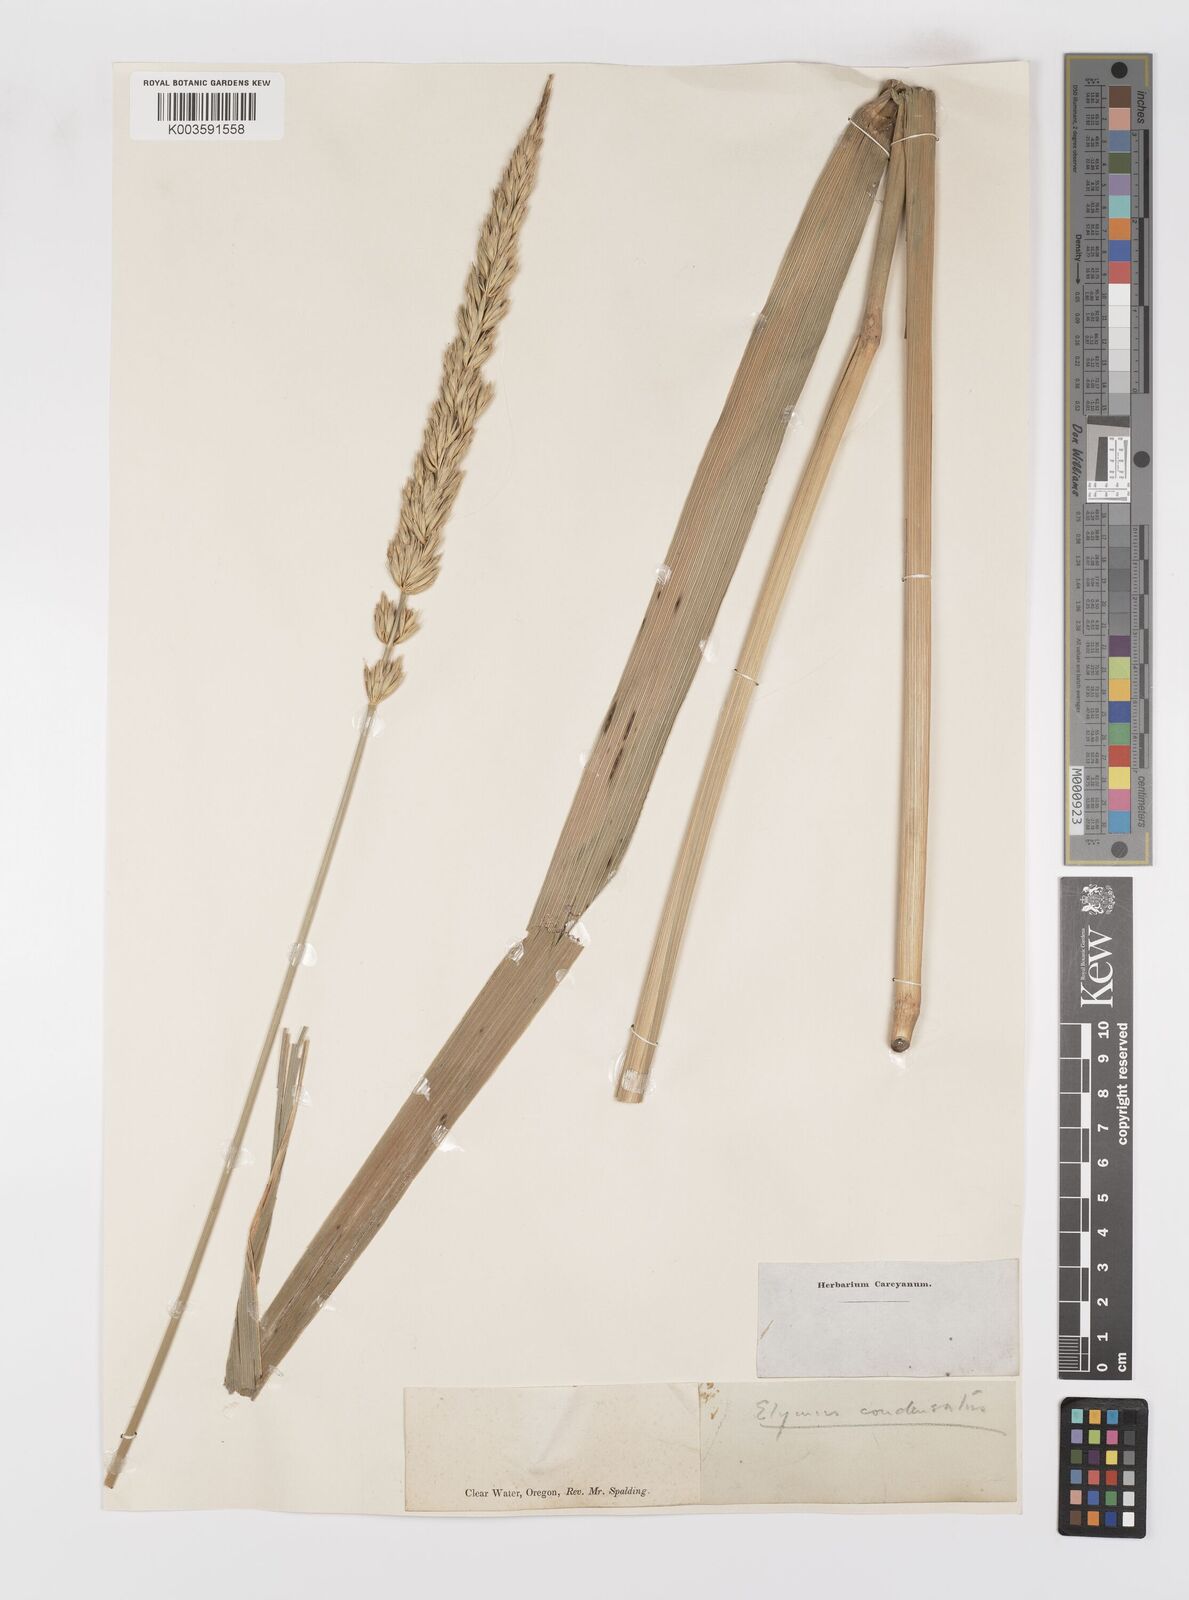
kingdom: Plantae
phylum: Tracheophyta
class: Liliopsida
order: Poales
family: Poaceae
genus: Leymus
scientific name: Leymus condensatus
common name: Giant wild rye
